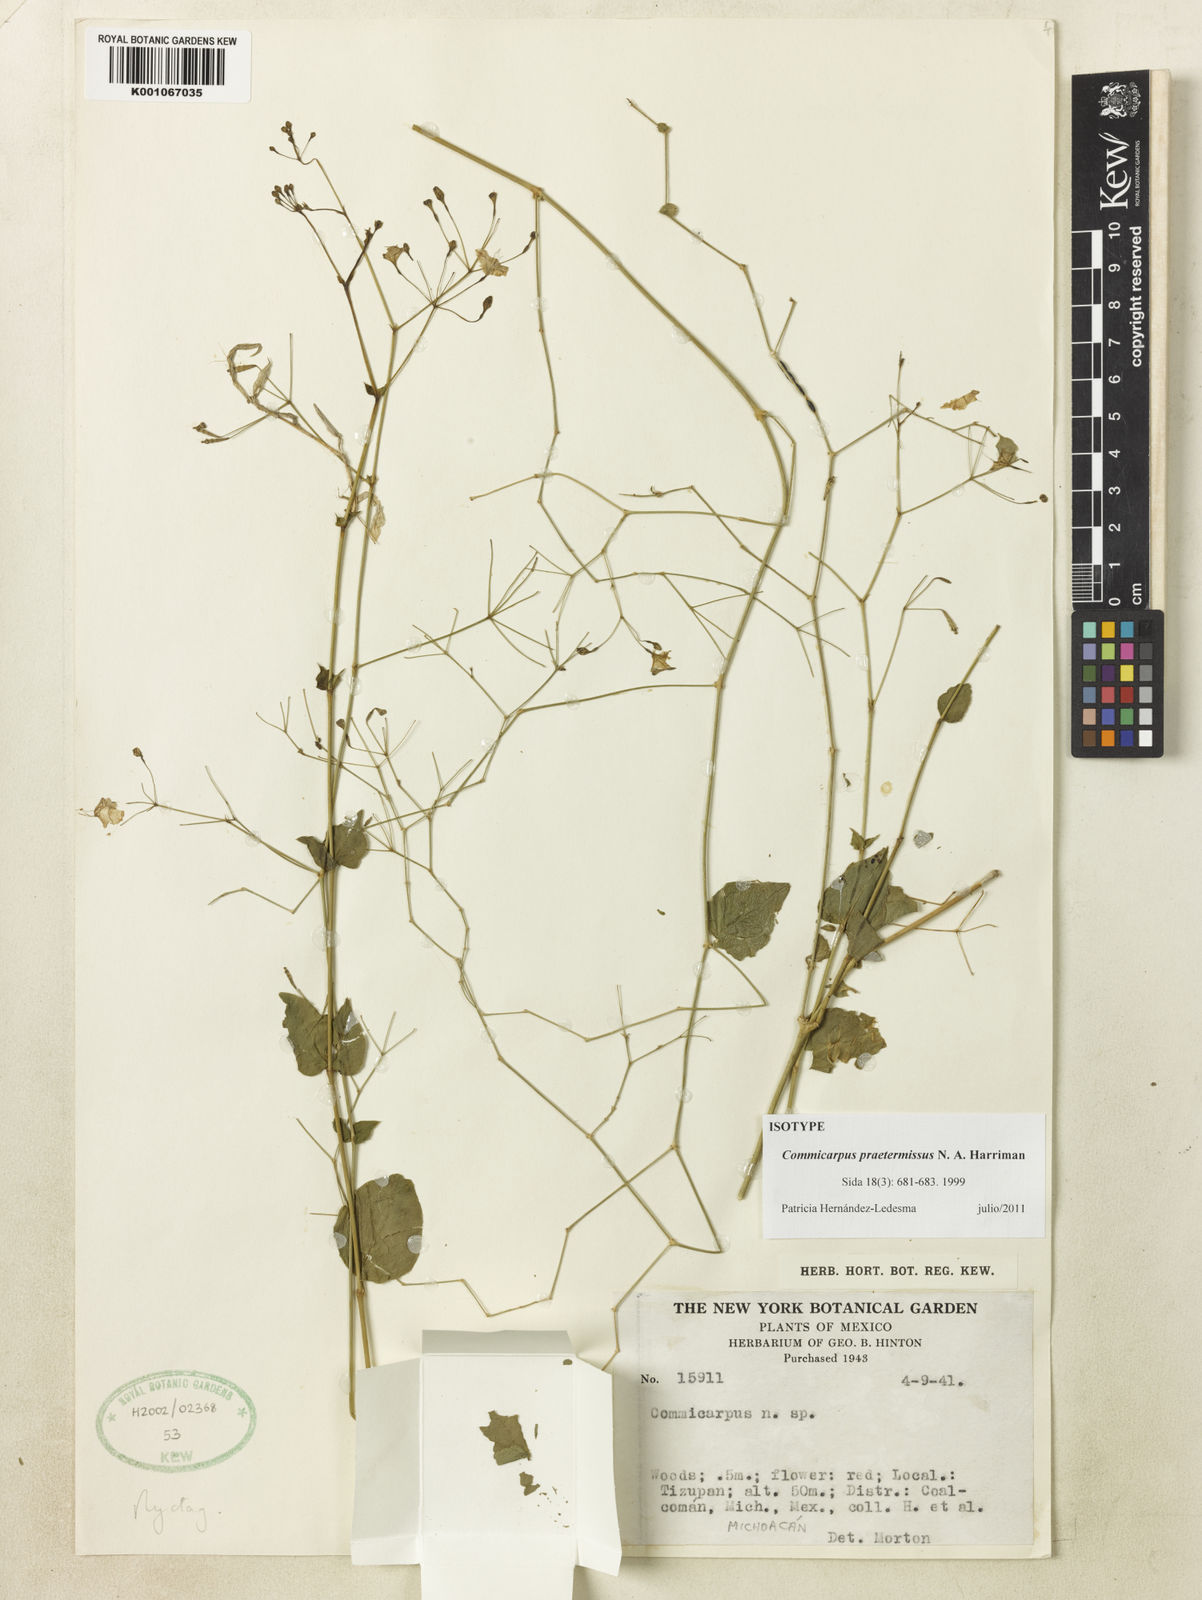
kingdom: Plantae
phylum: Tracheophyta
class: Magnoliopsida
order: Caryophyllales
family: Nyctaginaceae
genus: Commicarpus
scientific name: Commicarpus praetermissus
